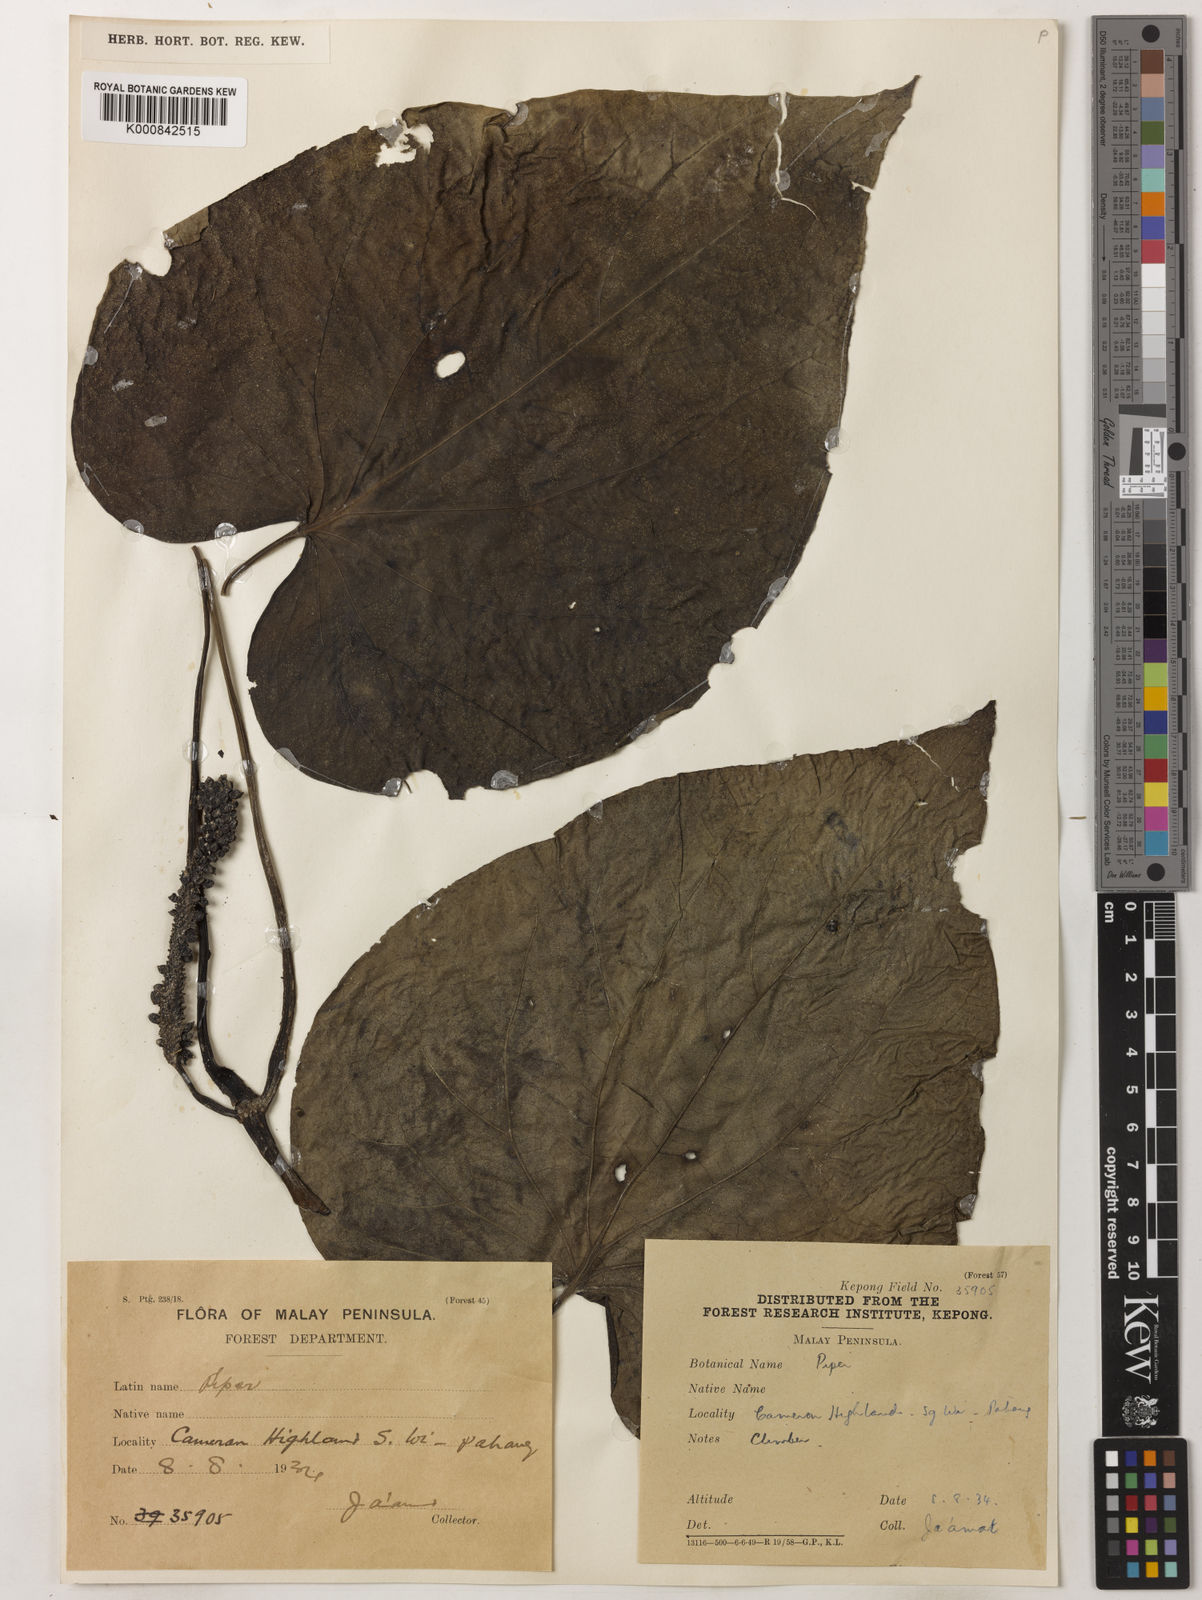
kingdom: Plantae
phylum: Tracheophyta
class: Magnoliopsida
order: Piperales
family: Piperaceae
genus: Piper
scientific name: Piper
